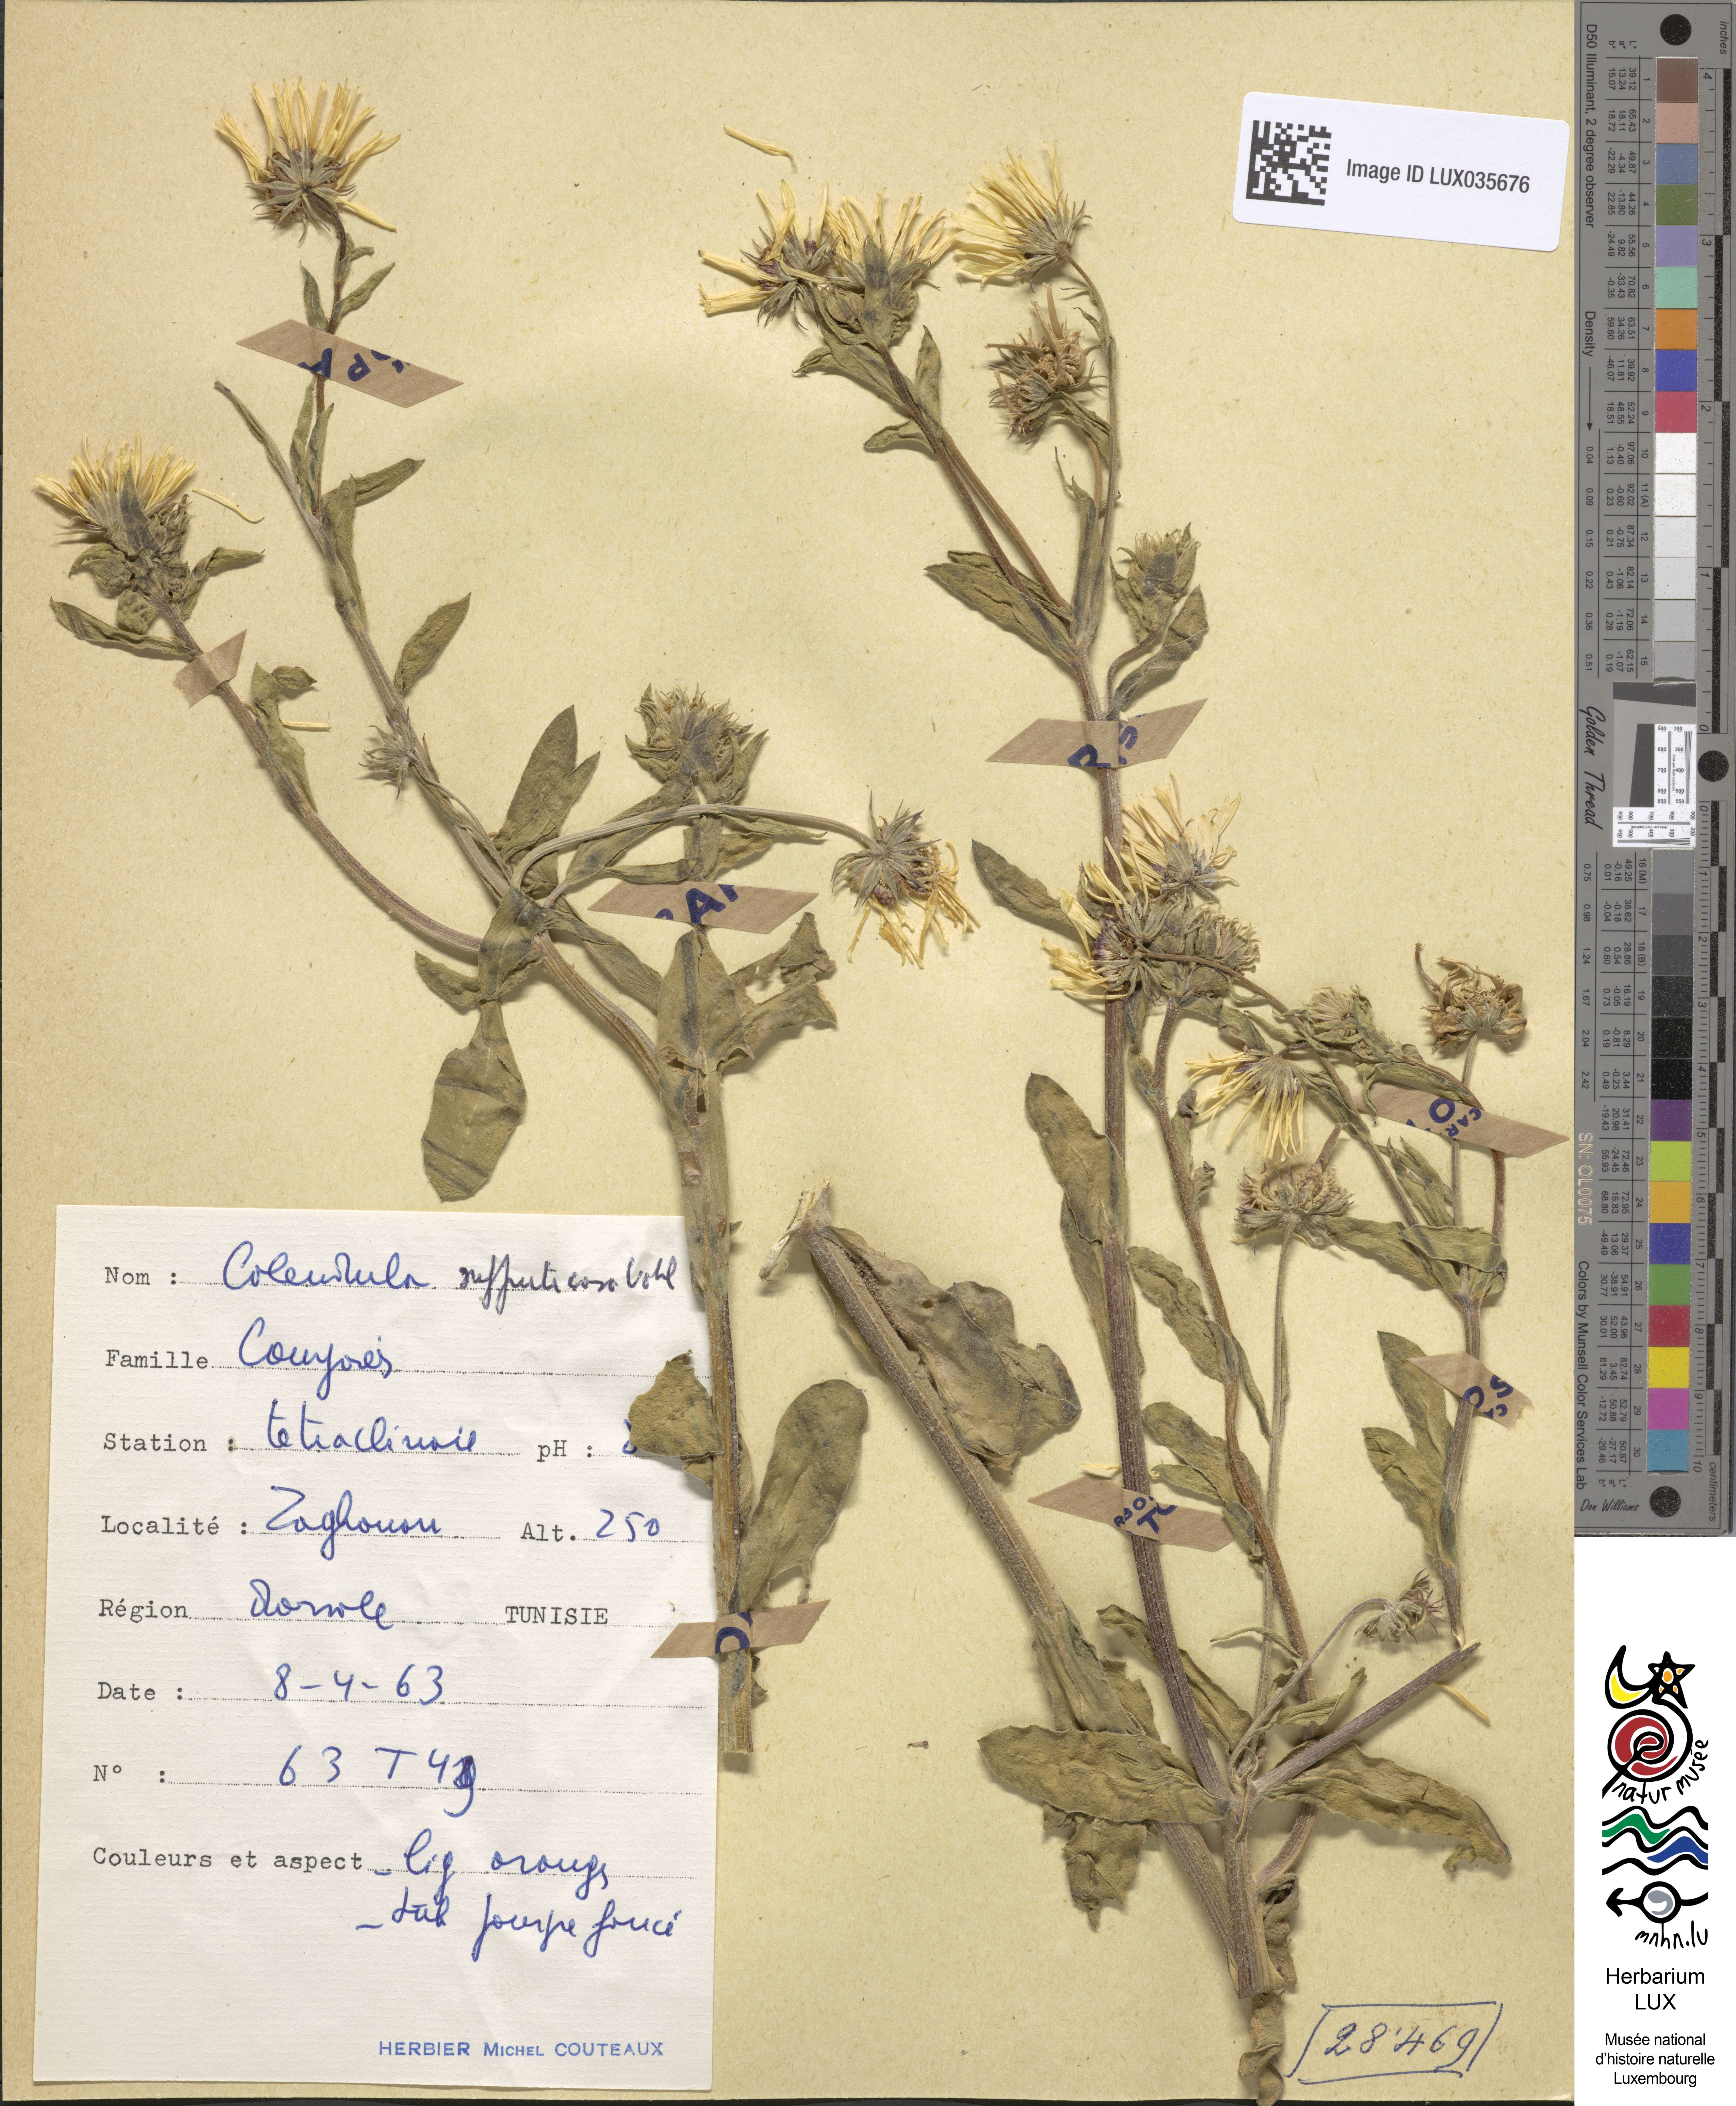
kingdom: Plantae
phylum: Tracheophyta
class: Magnoliopsida
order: Asterales
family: Asteraceae
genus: Calendula
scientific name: Calendula suffruticosa
